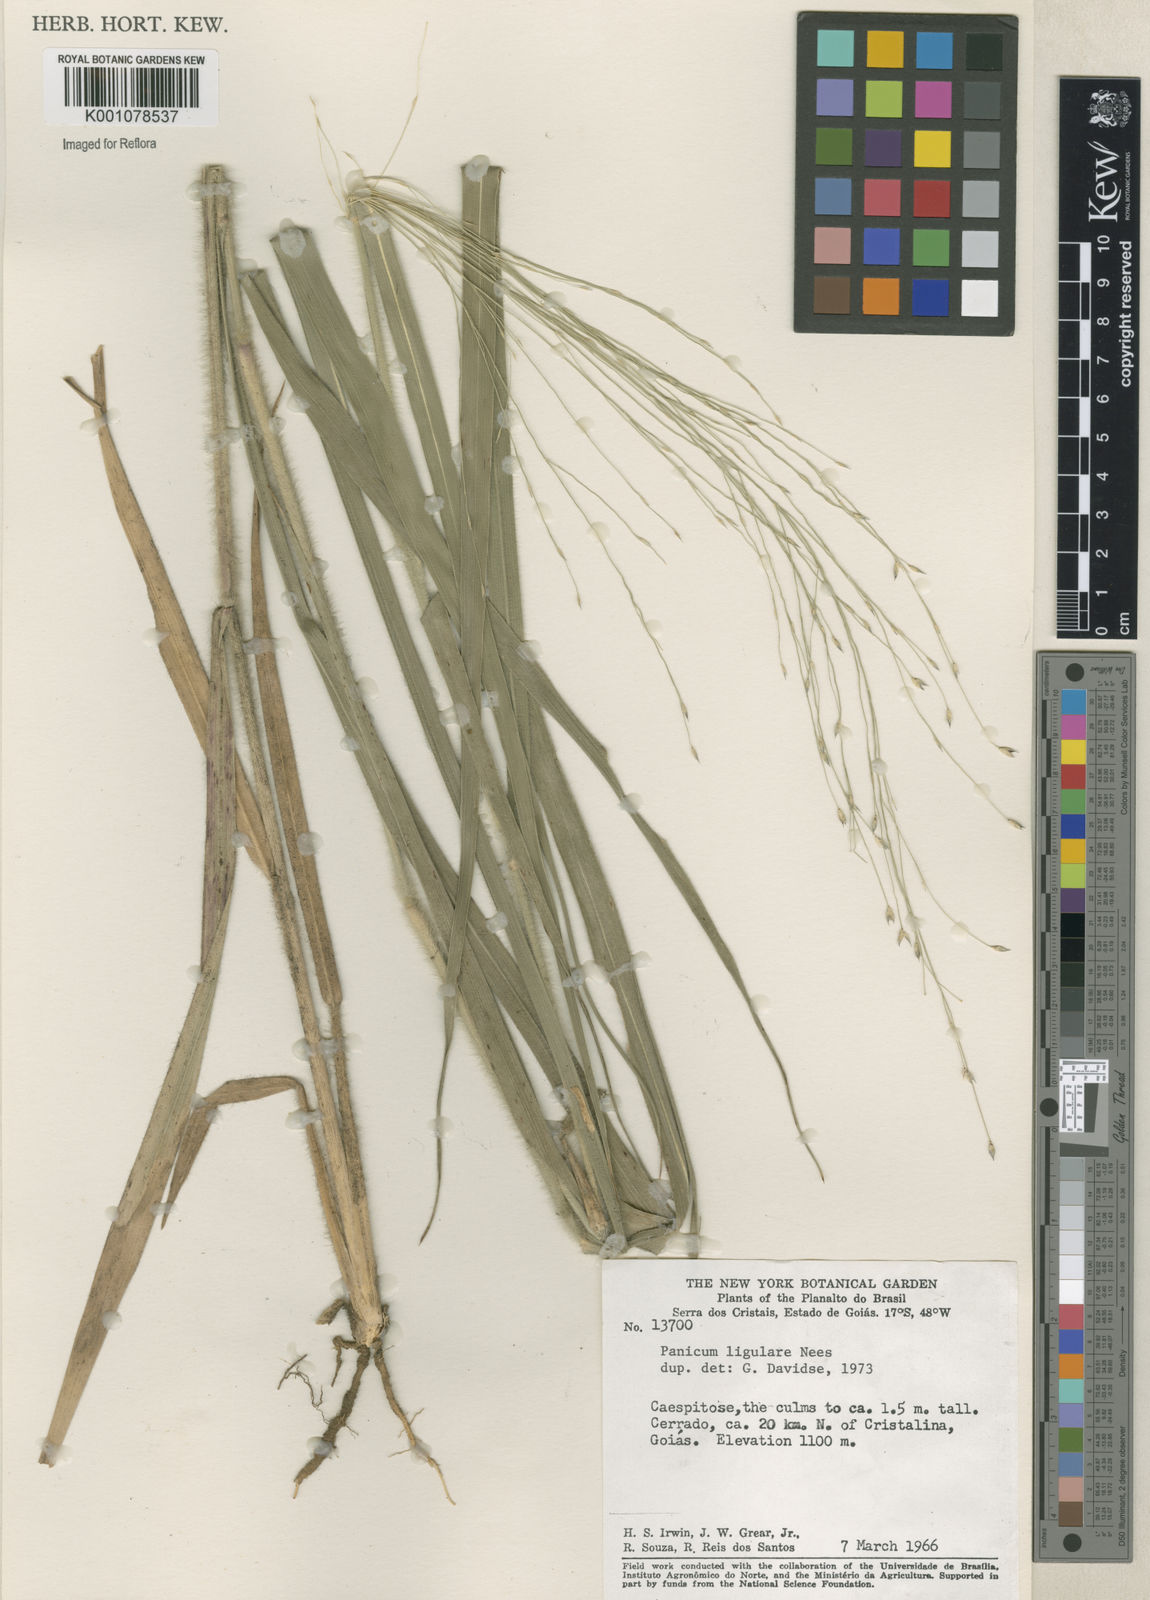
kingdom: Plantae
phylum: Tracheophyta
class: Liliopsida
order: Poales
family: Poaceae
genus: Panicum
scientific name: Panicum ligulare
